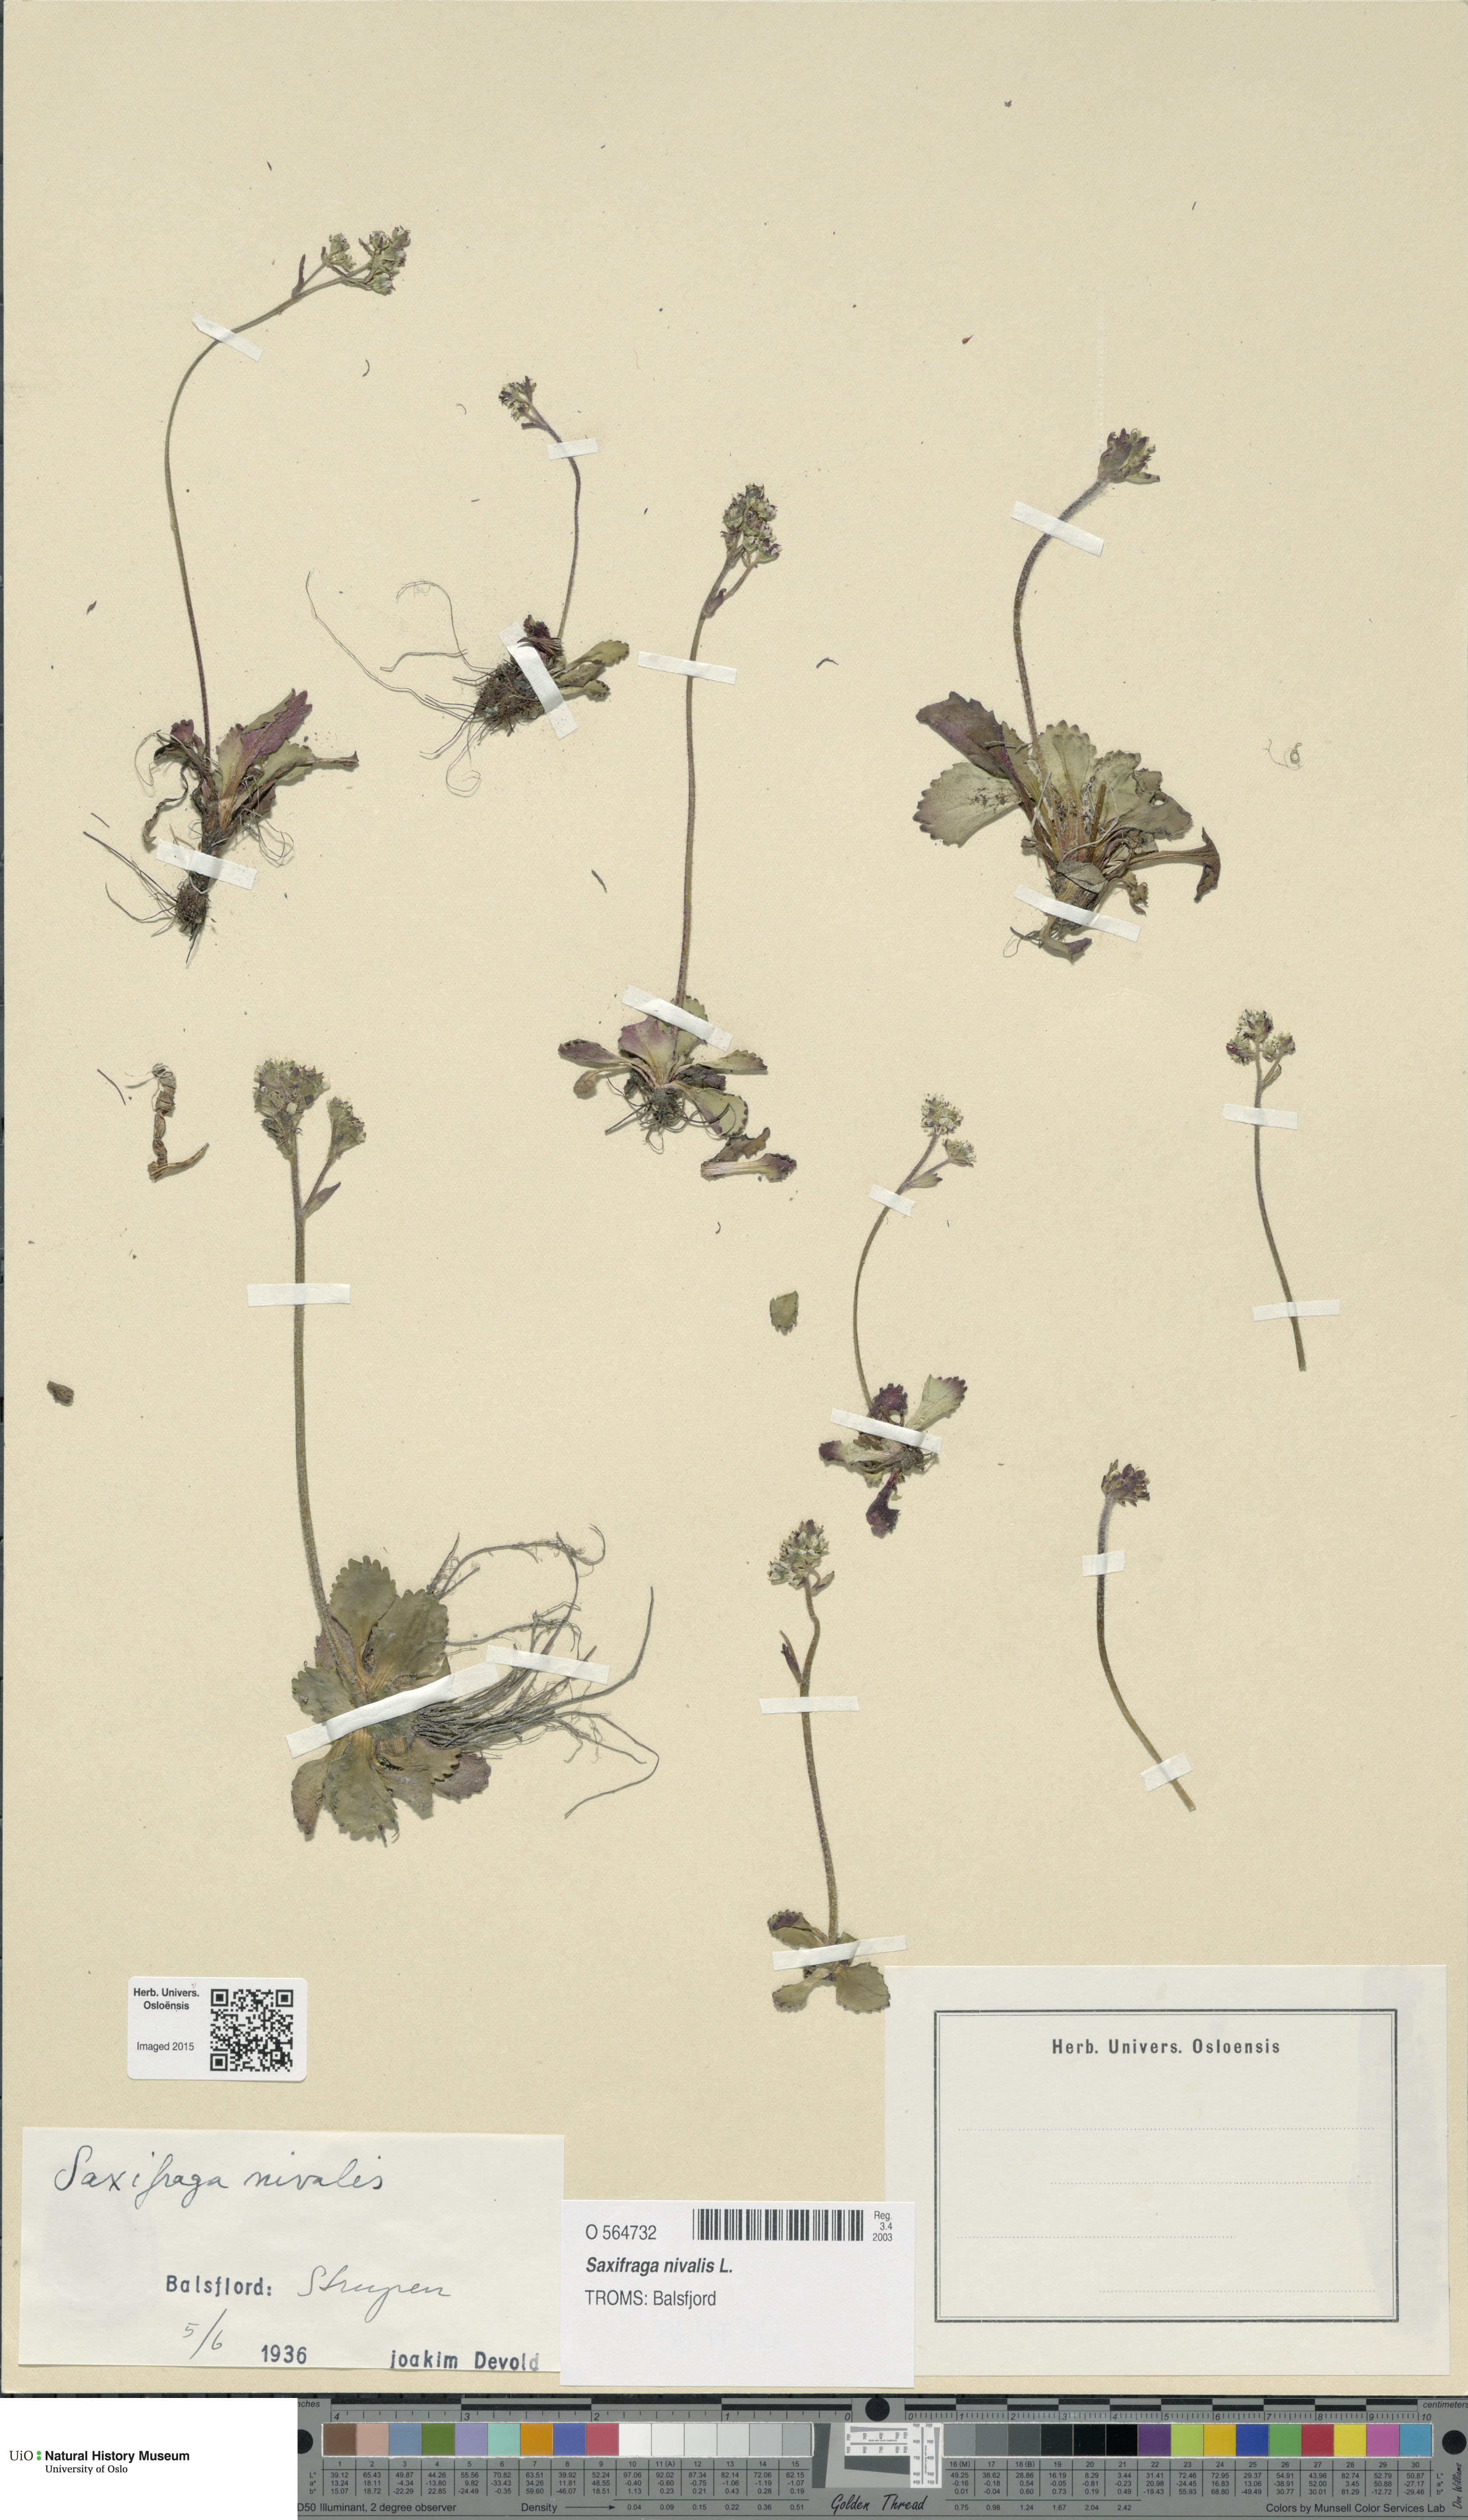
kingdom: Plantae
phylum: Tracheophyta
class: Magnoliopsida
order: Saxifragales
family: Saxifragaceae
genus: Micranthes
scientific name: Micranthes nivalis
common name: Alpine saxifrage
